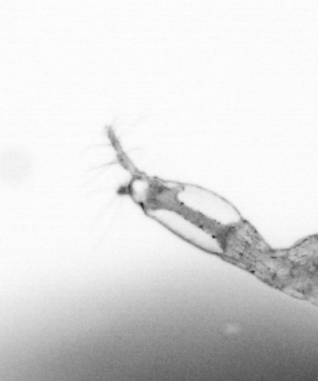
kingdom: Animalia
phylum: Arthropoda
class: Copepoda
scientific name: Copepoda
